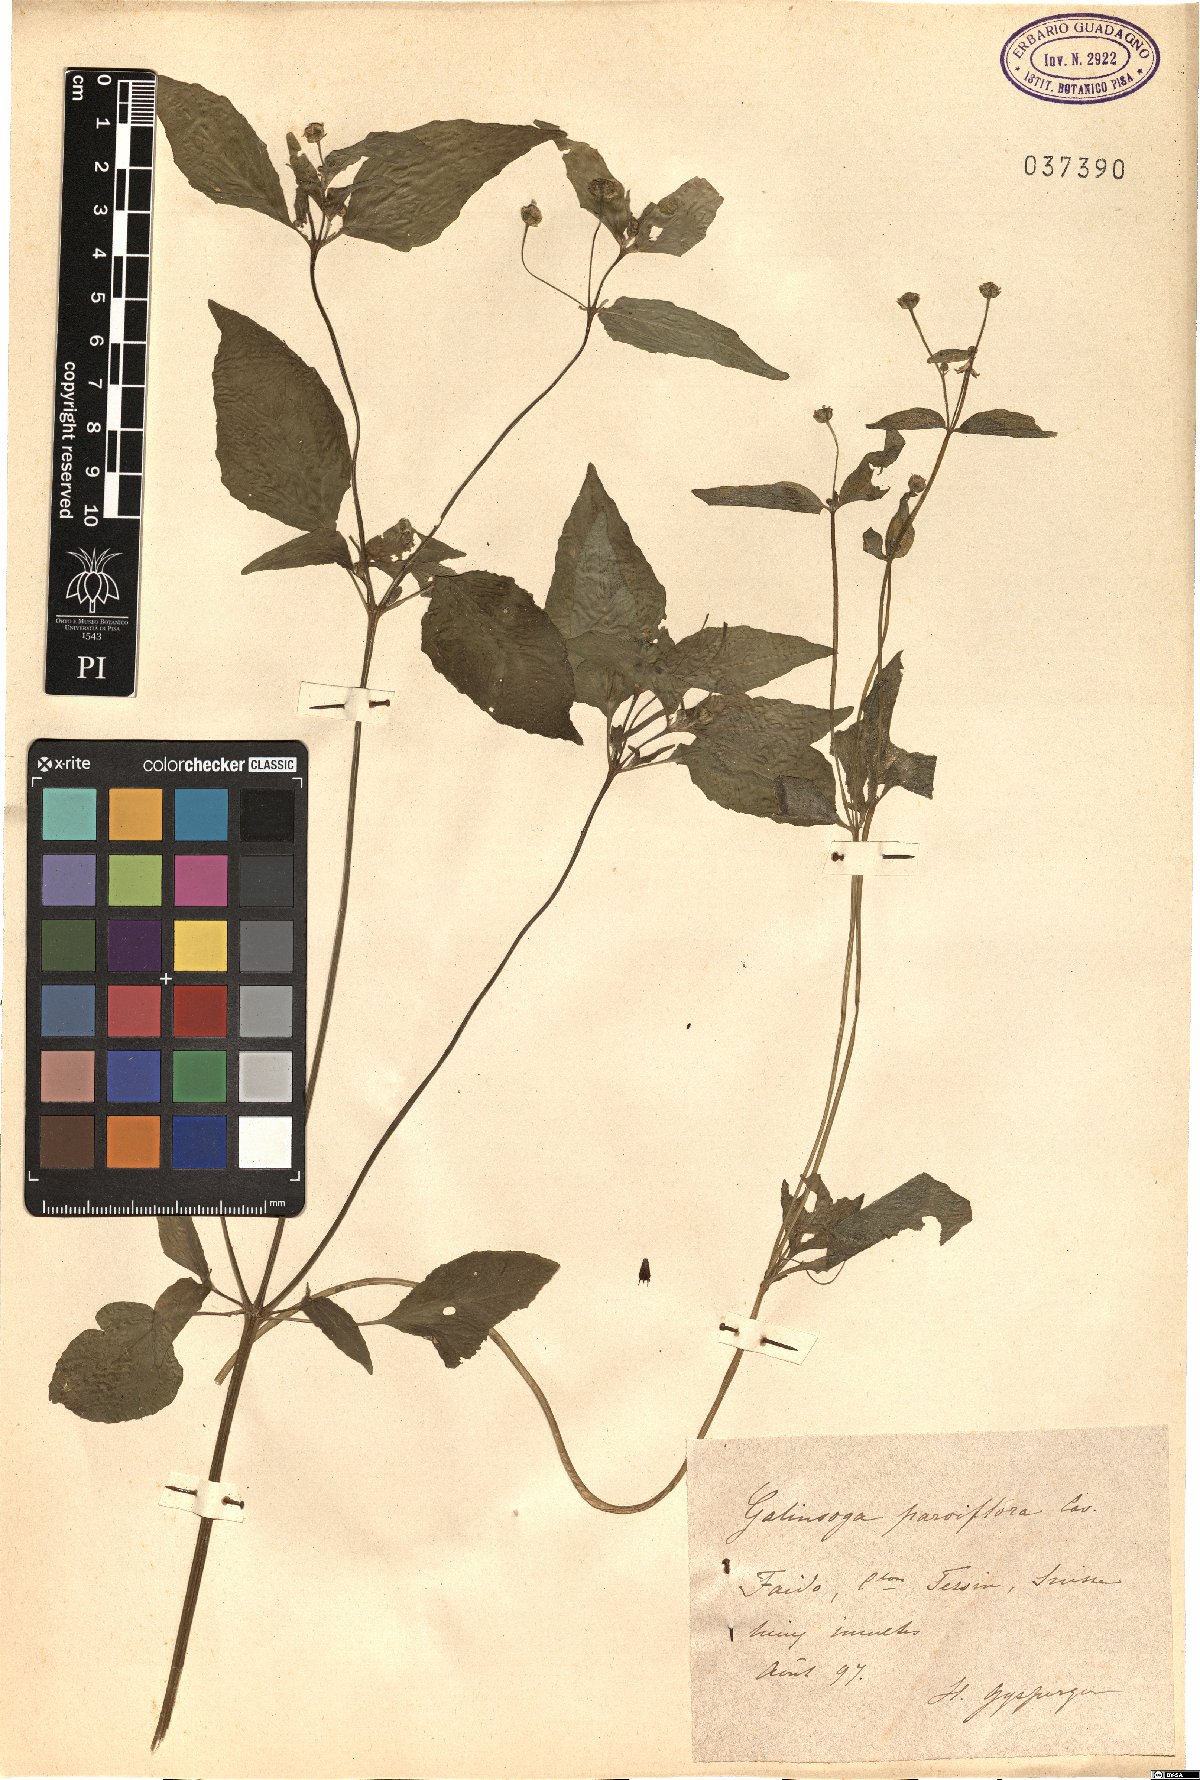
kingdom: Plantae
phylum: Tracheophyta
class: Magnoliopsida
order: Asterales
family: Asteraceae
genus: Galinsoga
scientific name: Galinsoga parviflora
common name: Gallant soldier
